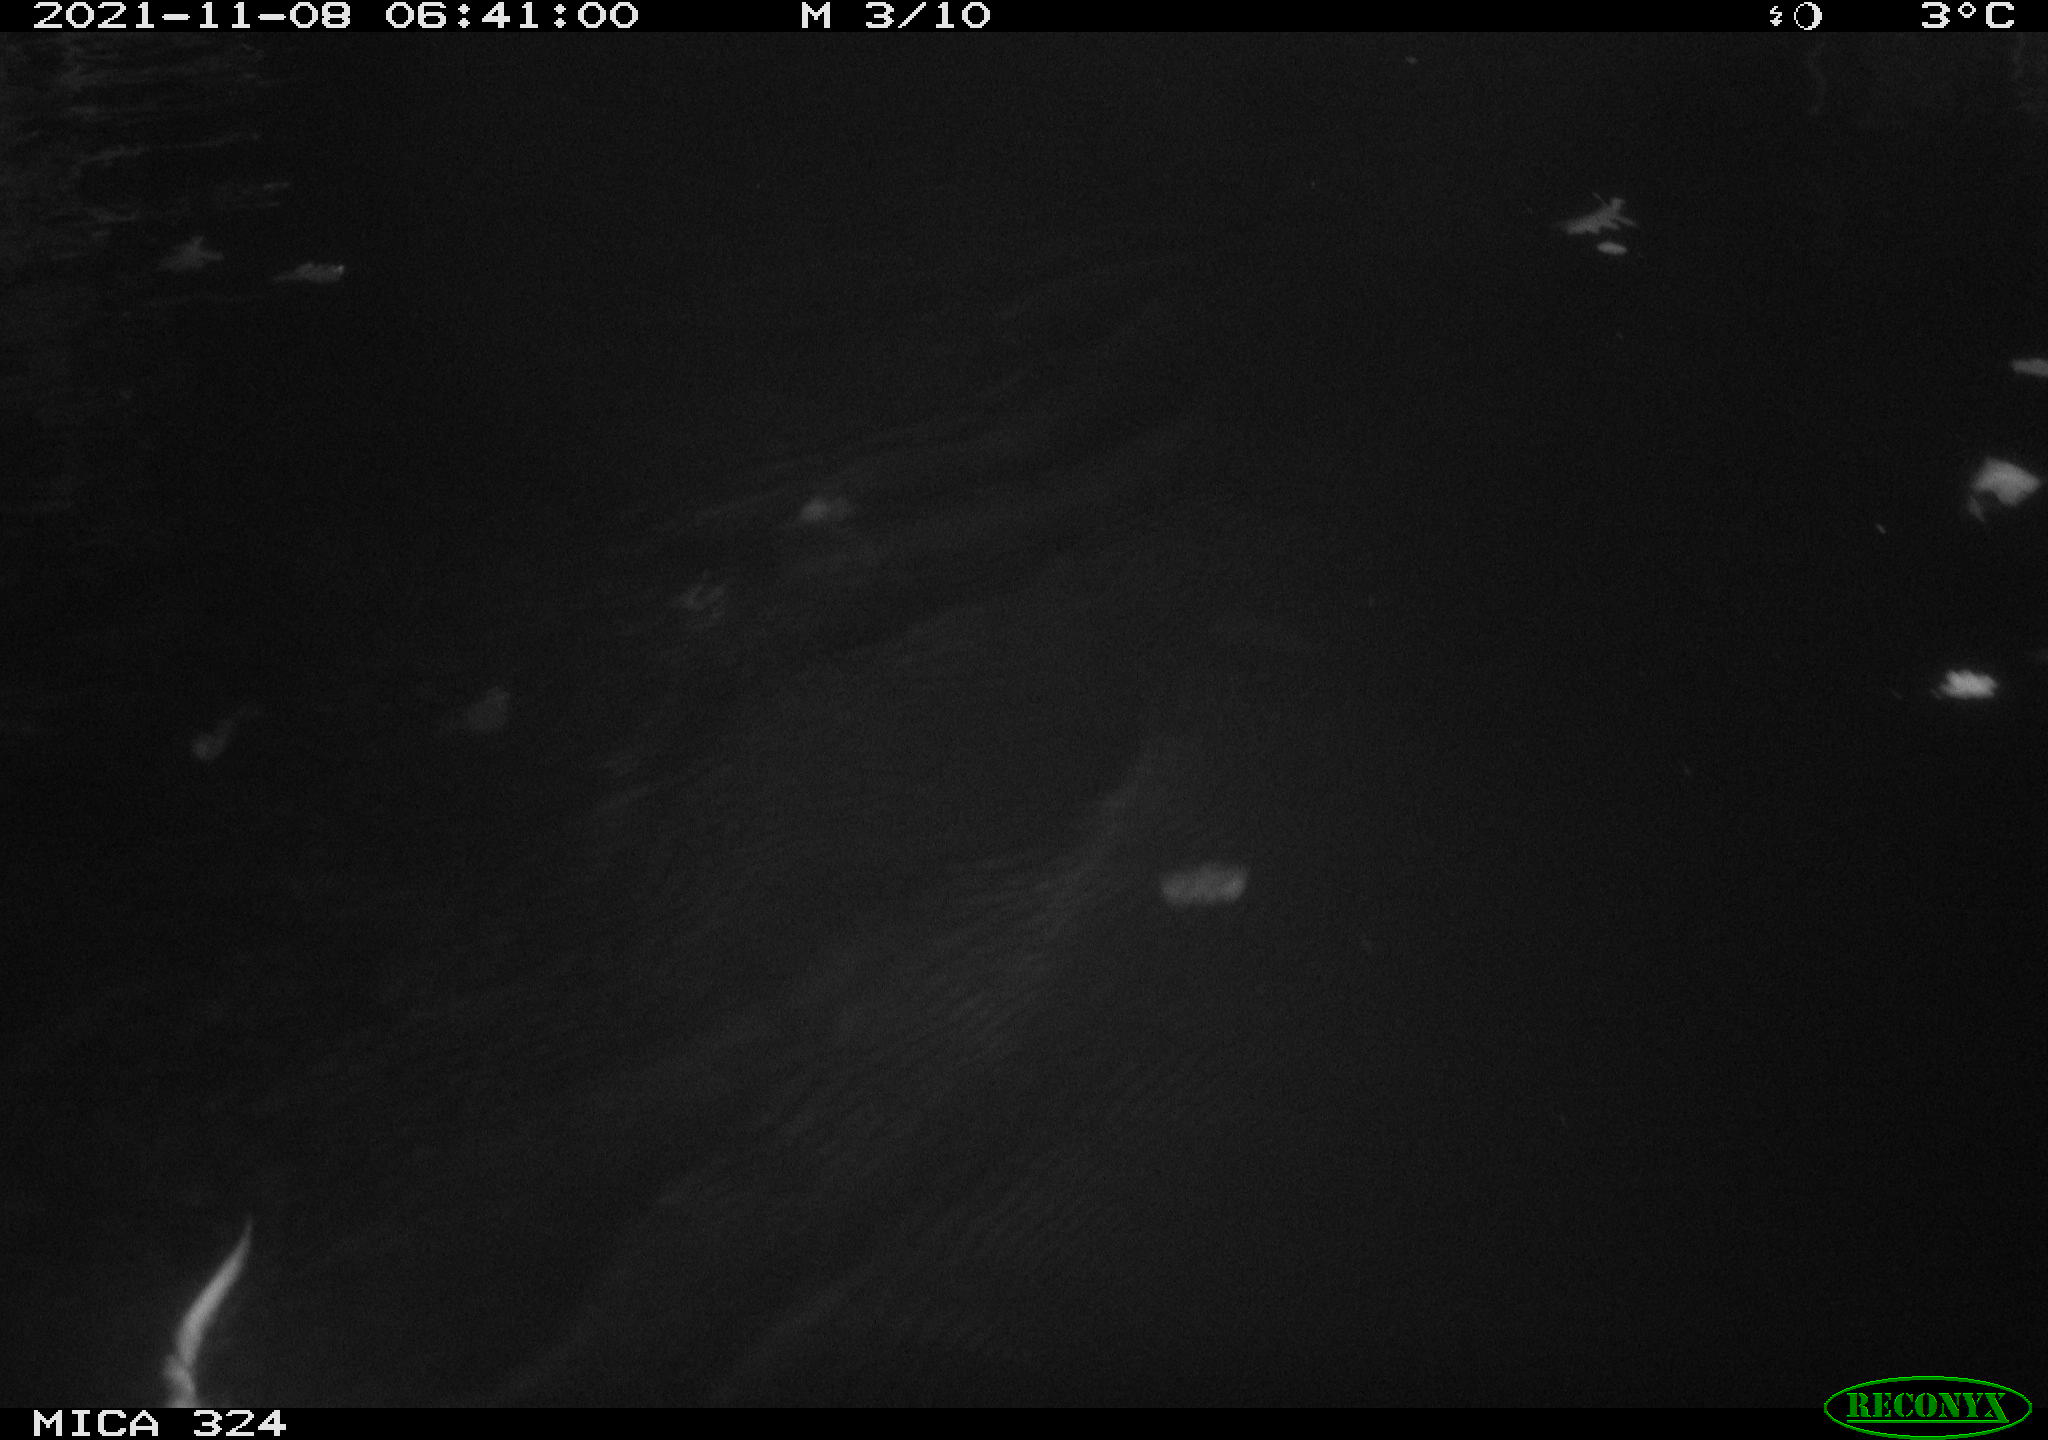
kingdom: Animalia
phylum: Chordata
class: Mammalia
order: Rodentia
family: Cricetidae
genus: Ondatra
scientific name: Ondatra zibethicus
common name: Muskrat
